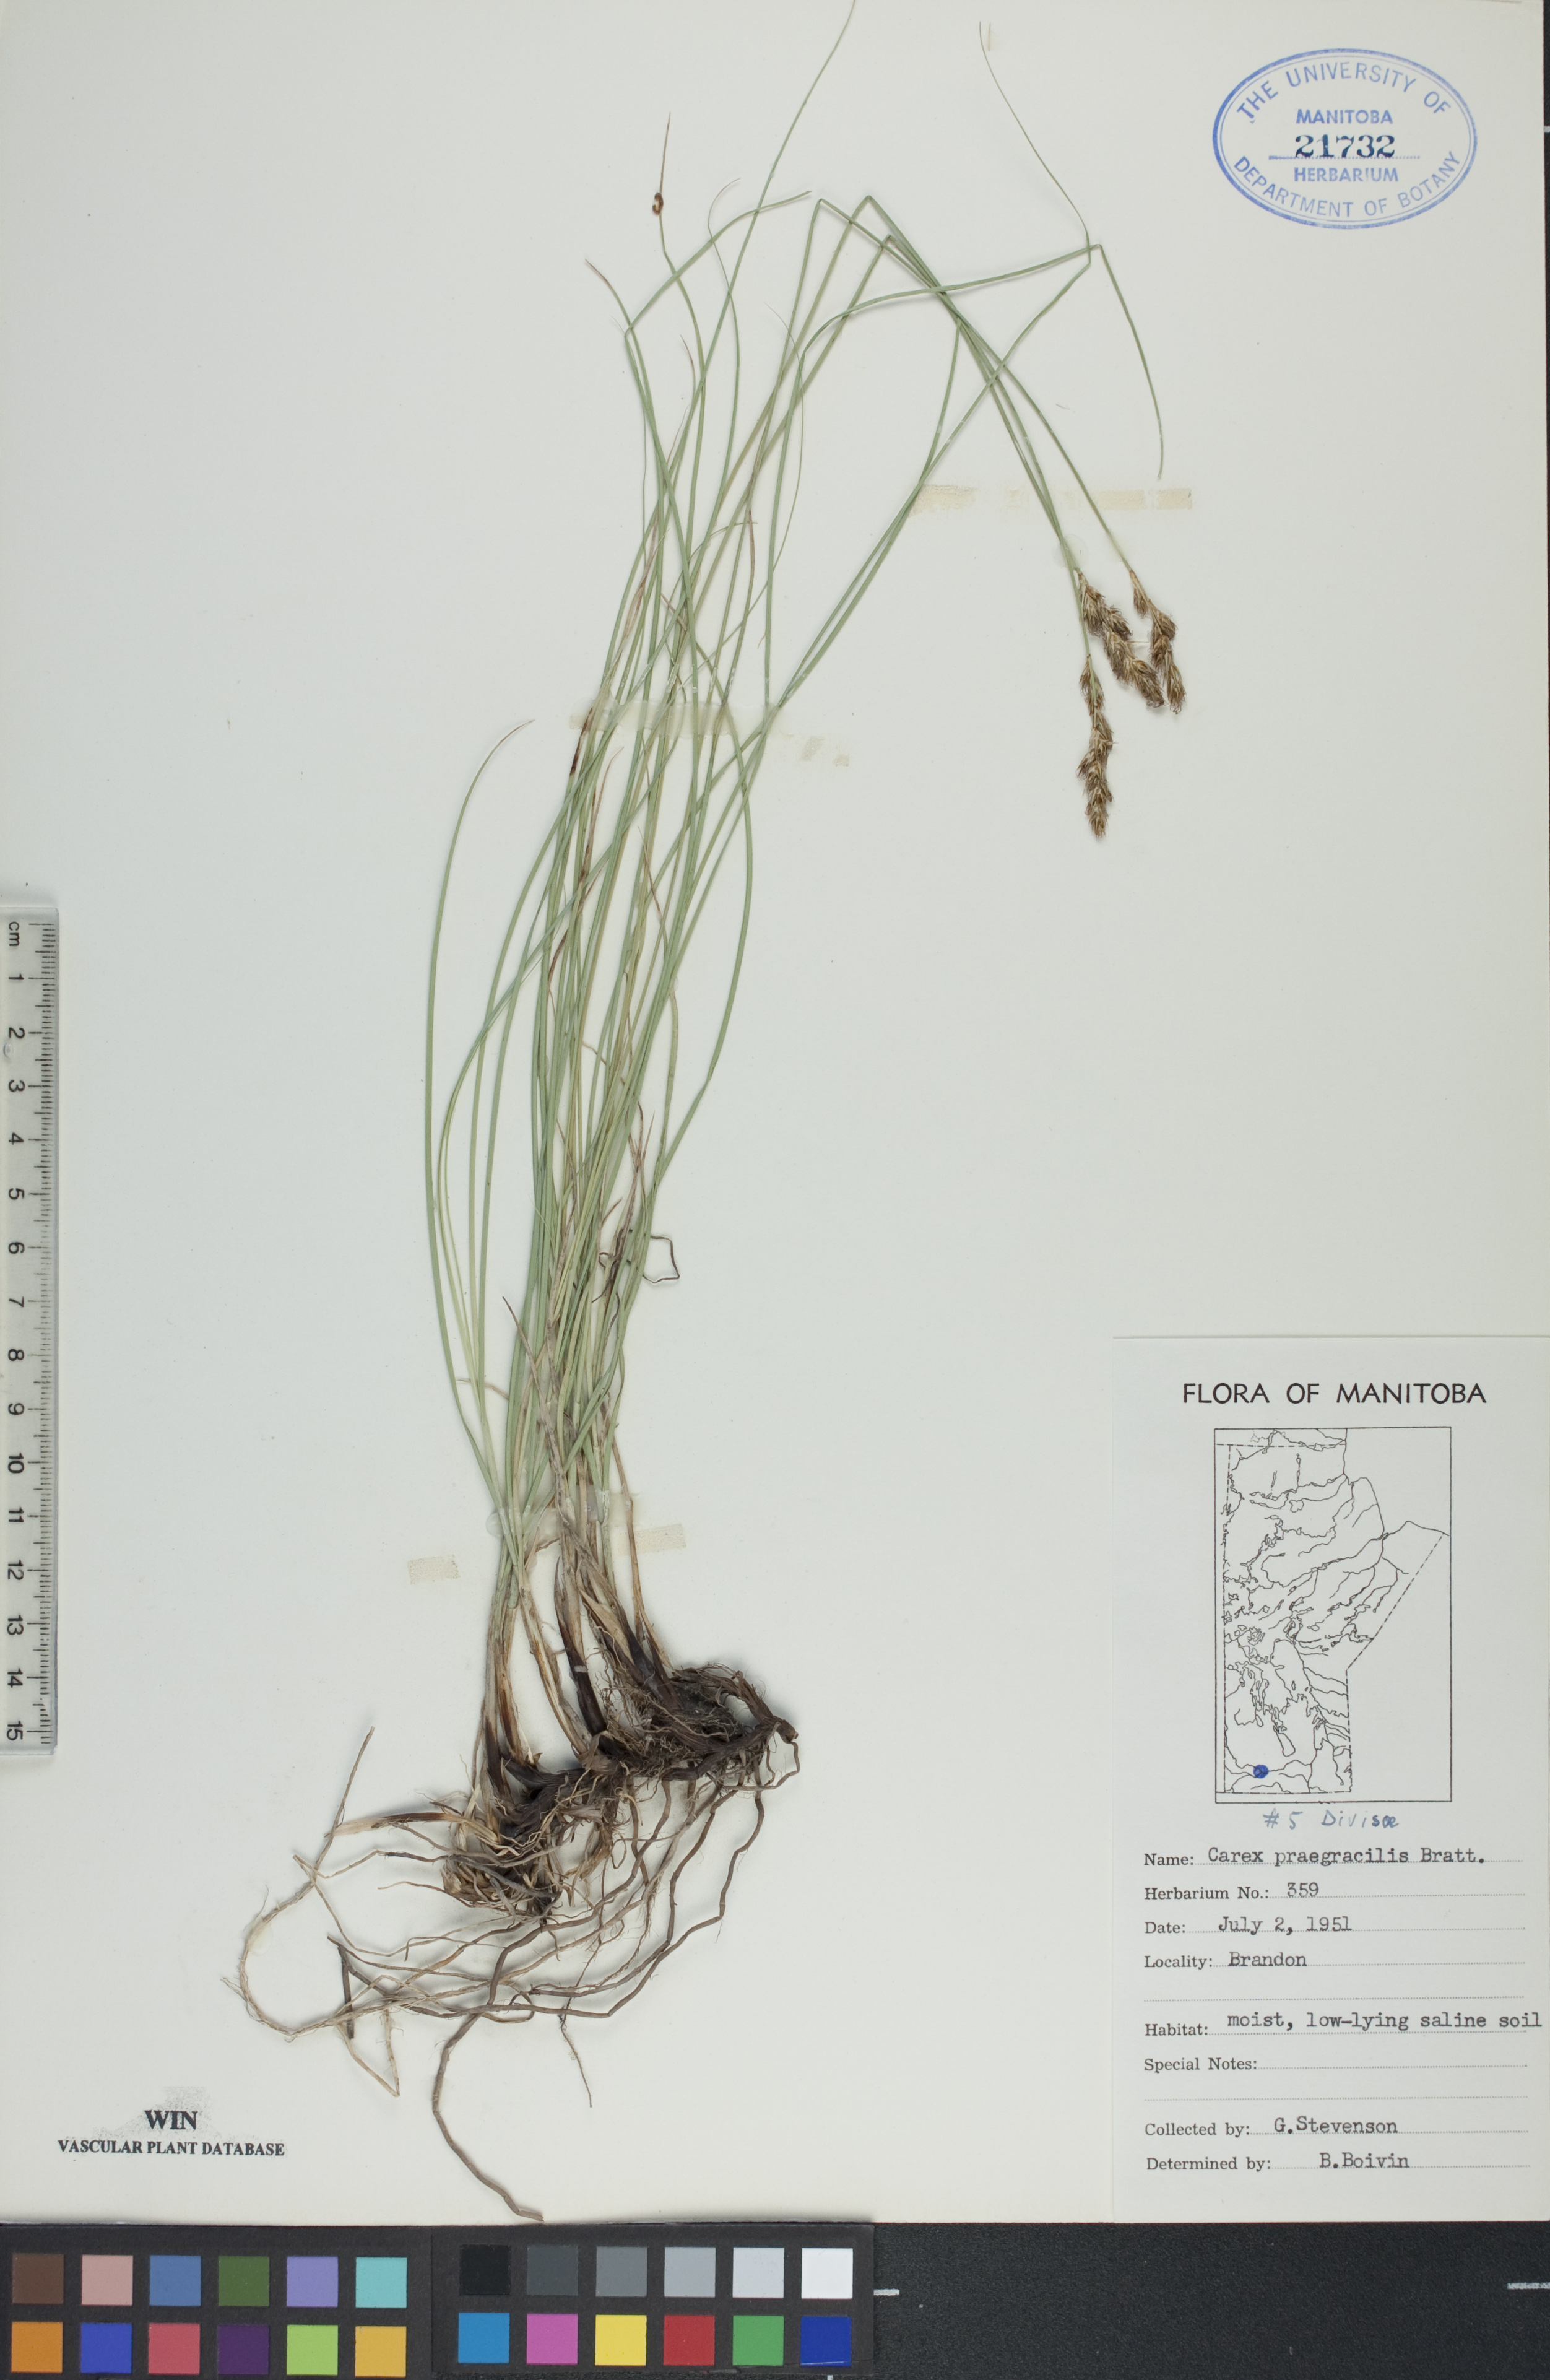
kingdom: Plantae
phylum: Tracheophyta
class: Liliopsida
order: Poales
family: Cyperaceae
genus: Carex
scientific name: Carex praegracilis
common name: Black creeper sedge
